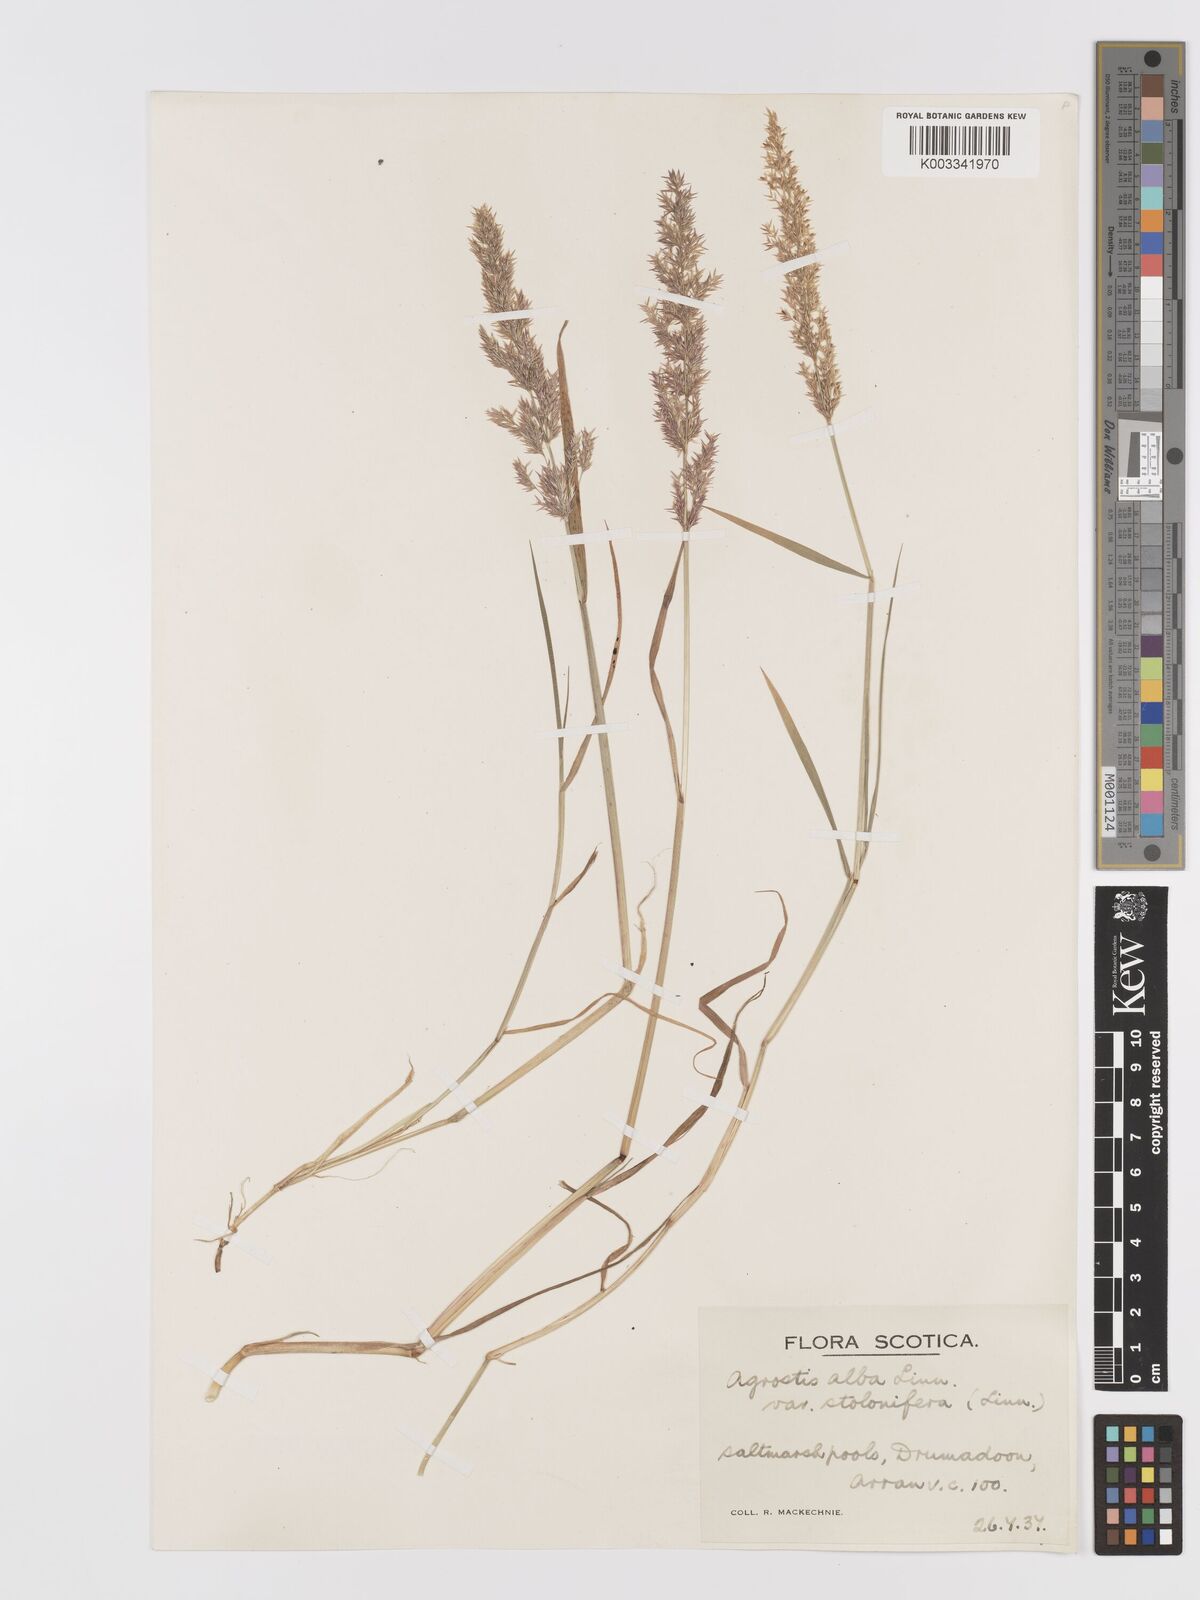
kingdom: Plantae
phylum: Tracheophyta
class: Liliopsida
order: Poales
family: Poaceae
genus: Agrostis
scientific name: Agrostis stolonifera
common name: Creeping bentgrass
